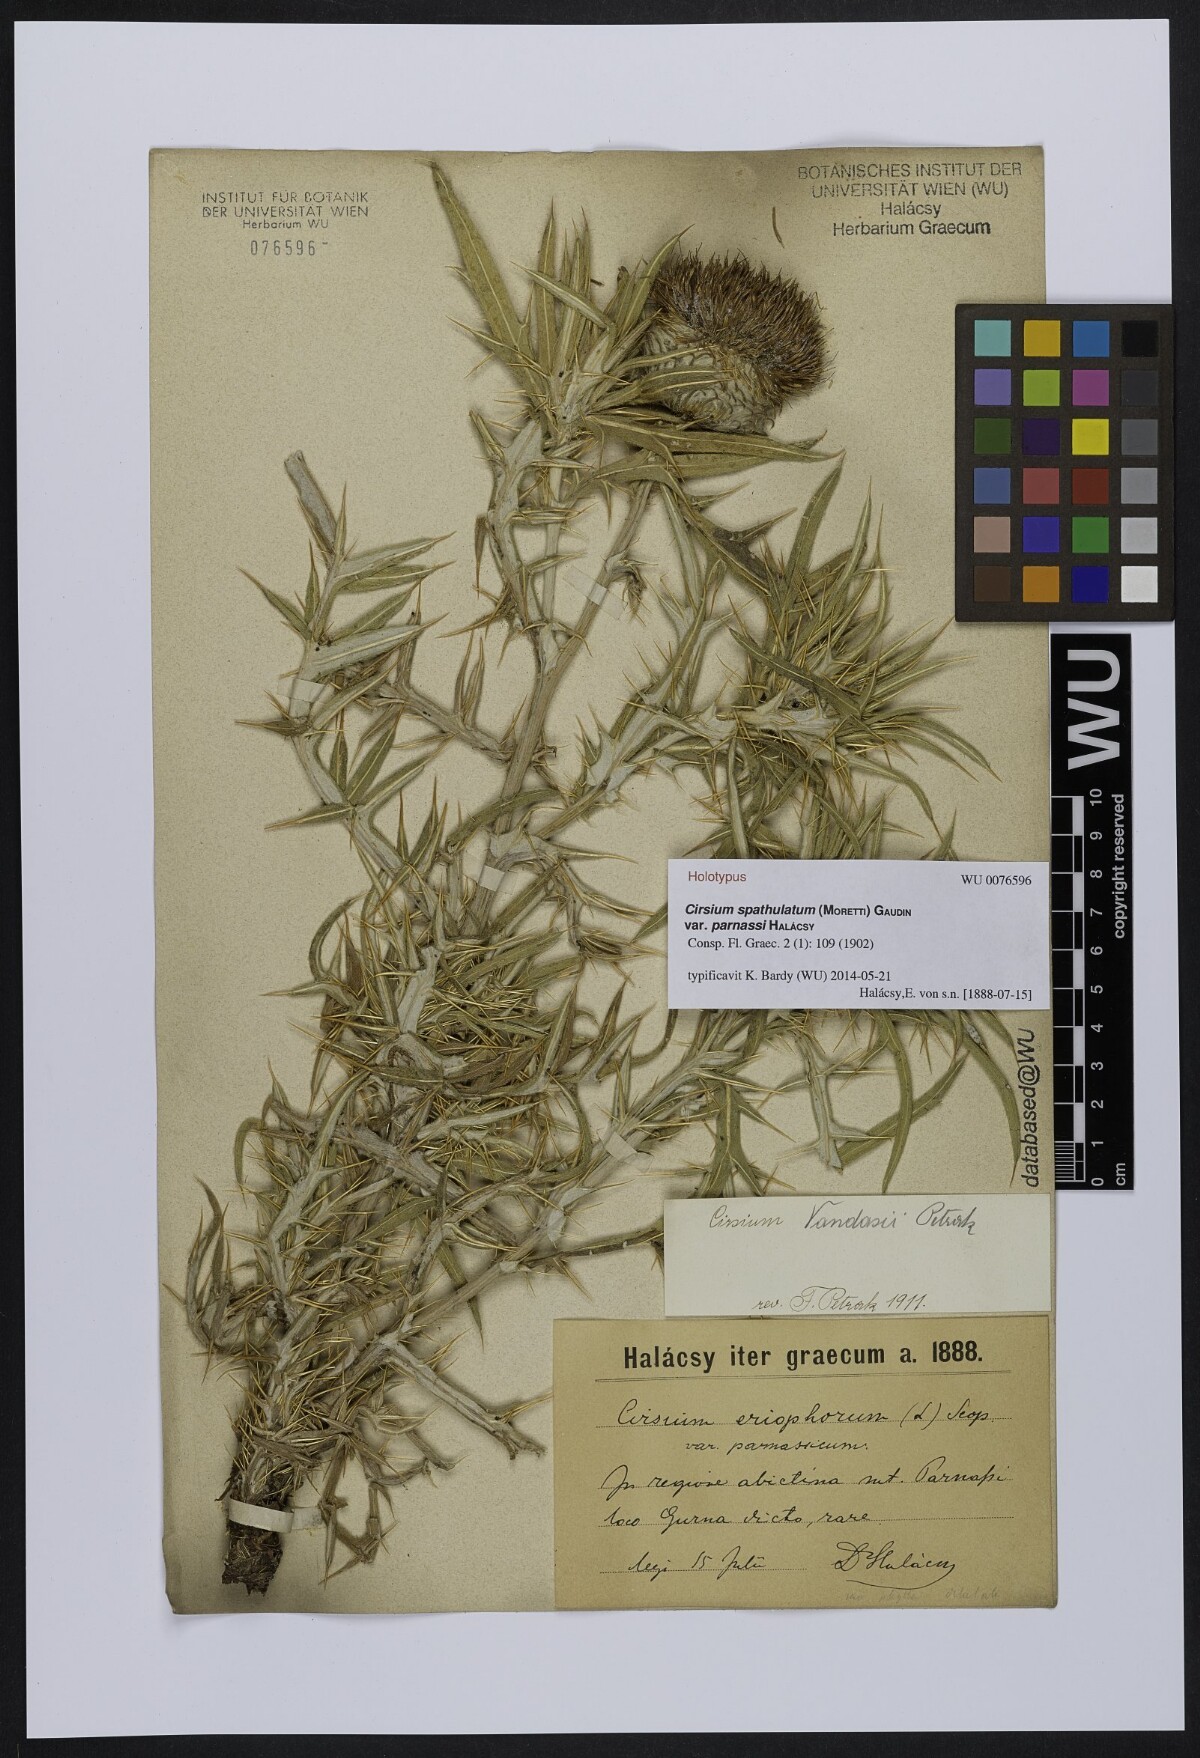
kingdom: Plantae
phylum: Tracheophyta
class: Magnoliopsida
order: Asterales
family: Asteraceae
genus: Lophiolepis
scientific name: Lophiolepis eriophora
